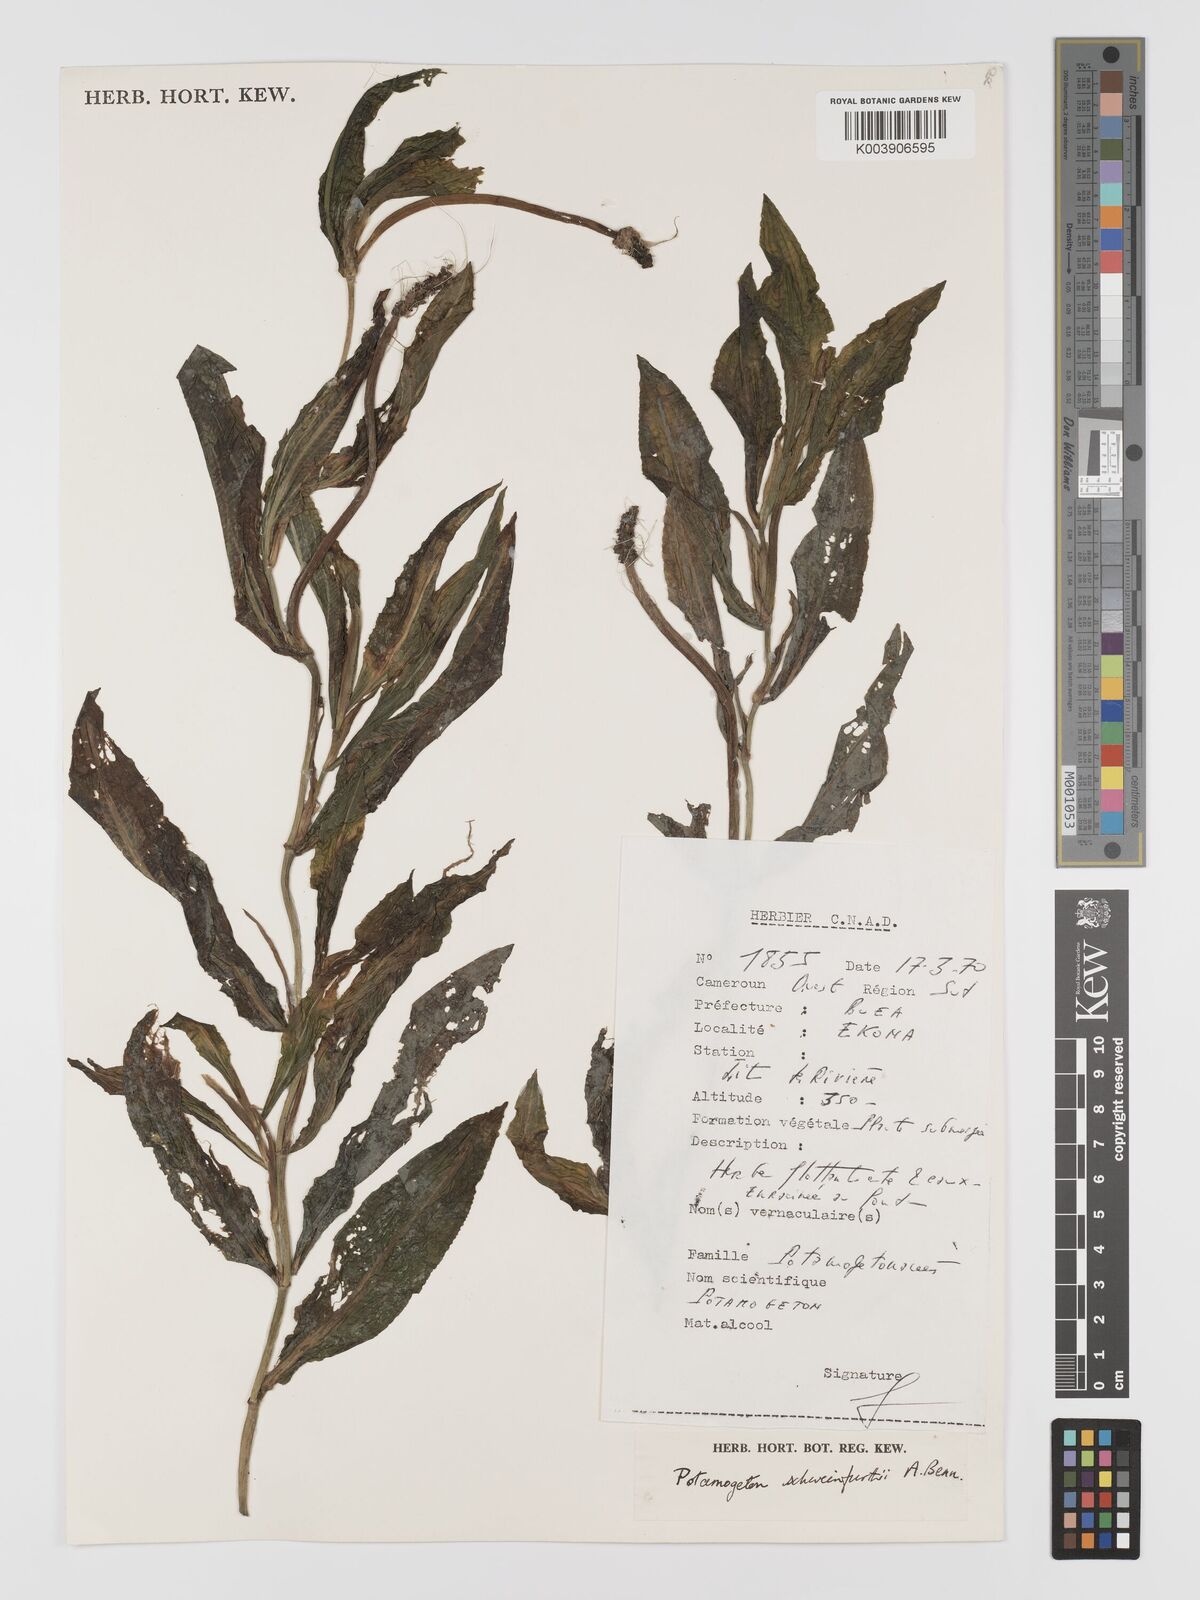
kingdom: Plantae
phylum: Tracheophyta
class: Liliopsida
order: Alismatales
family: Potamogetonaceae
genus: Potamogeton
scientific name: Potamogeton schweinfurthii
